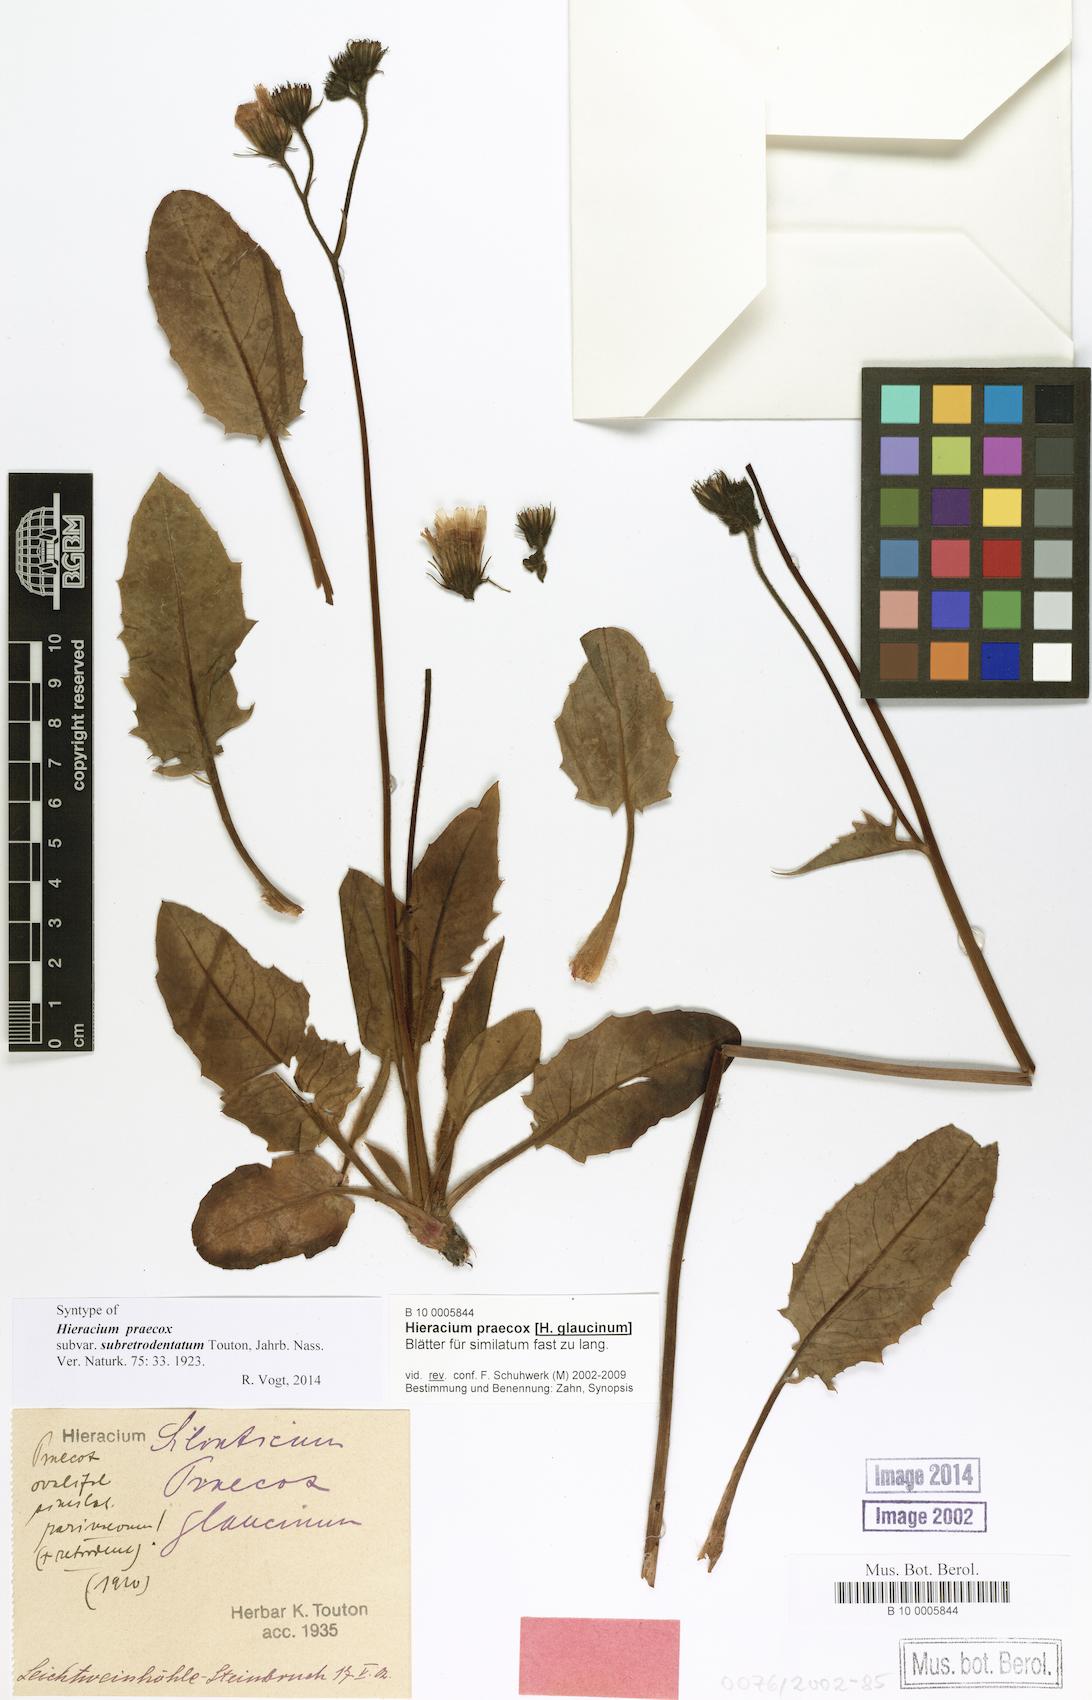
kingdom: Plantae
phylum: Tracheophyta
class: Magnoliopsida
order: Asterales
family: Asteraceae
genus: Hieracium
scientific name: Hieracium praecox
